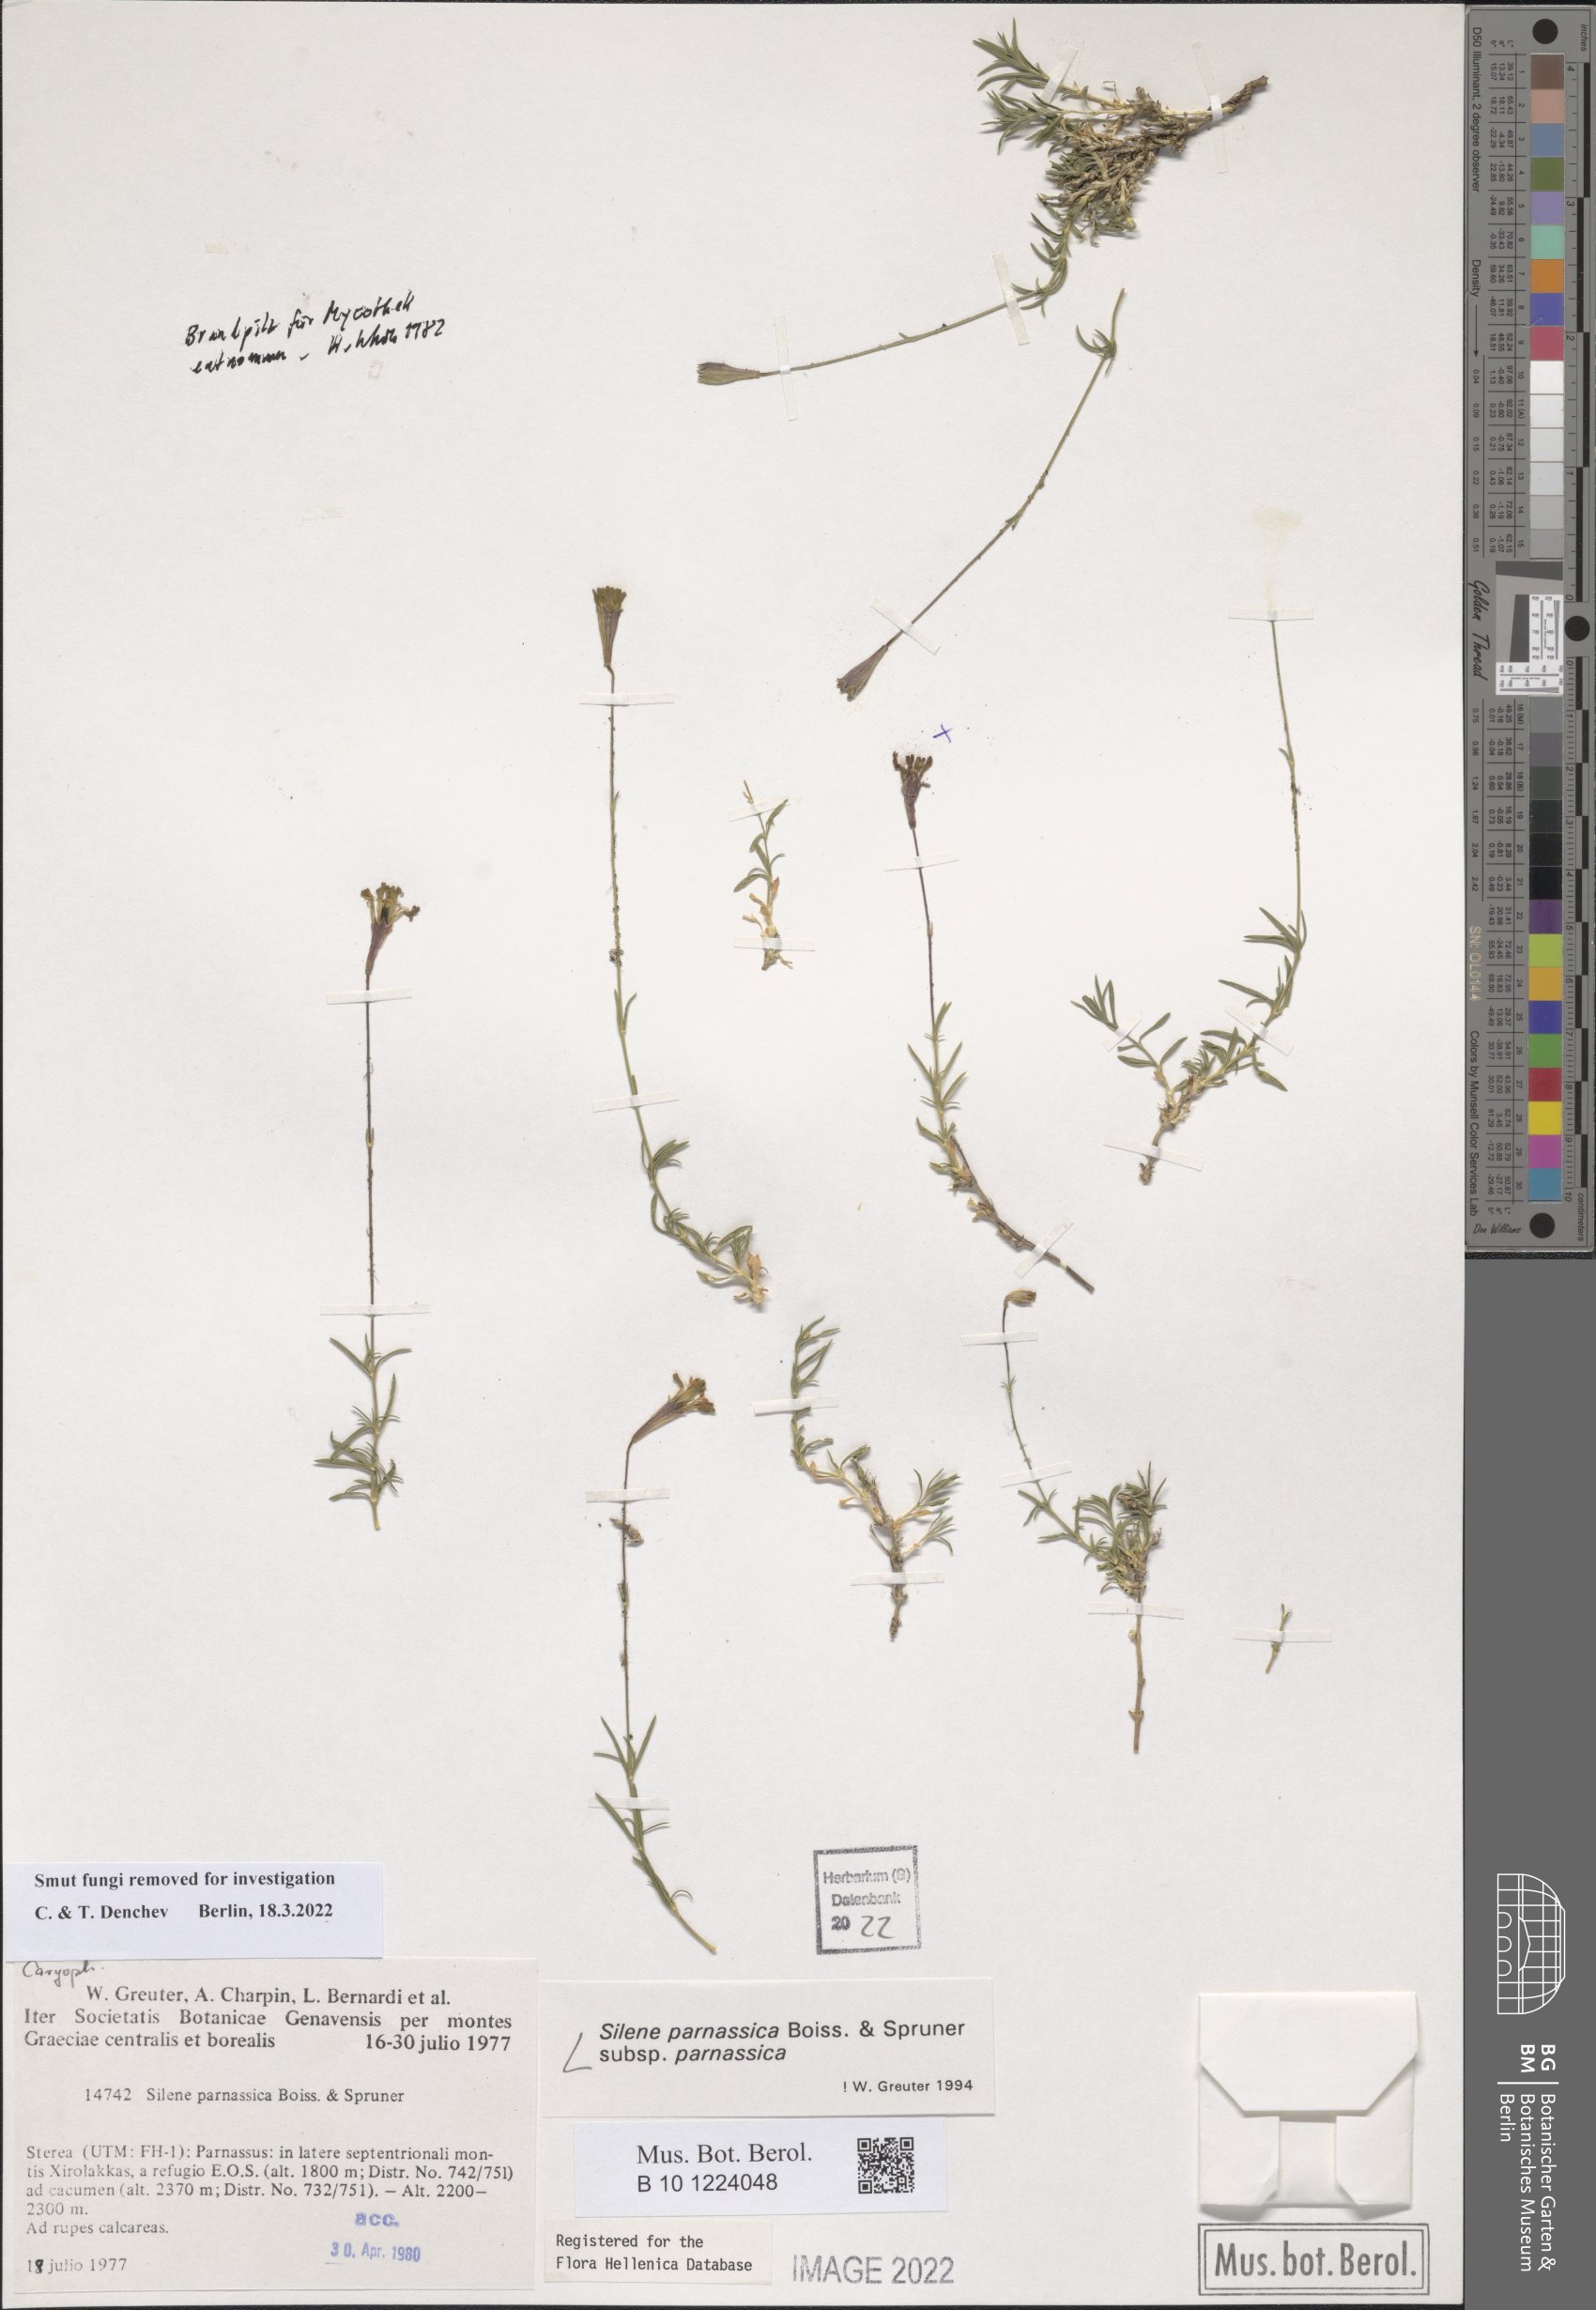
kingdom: Plantae
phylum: Tracheophyta
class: Magnoliopsida
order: Caryophyllales
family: Caryophyllaceae
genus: Silene
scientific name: Silene parnassica
